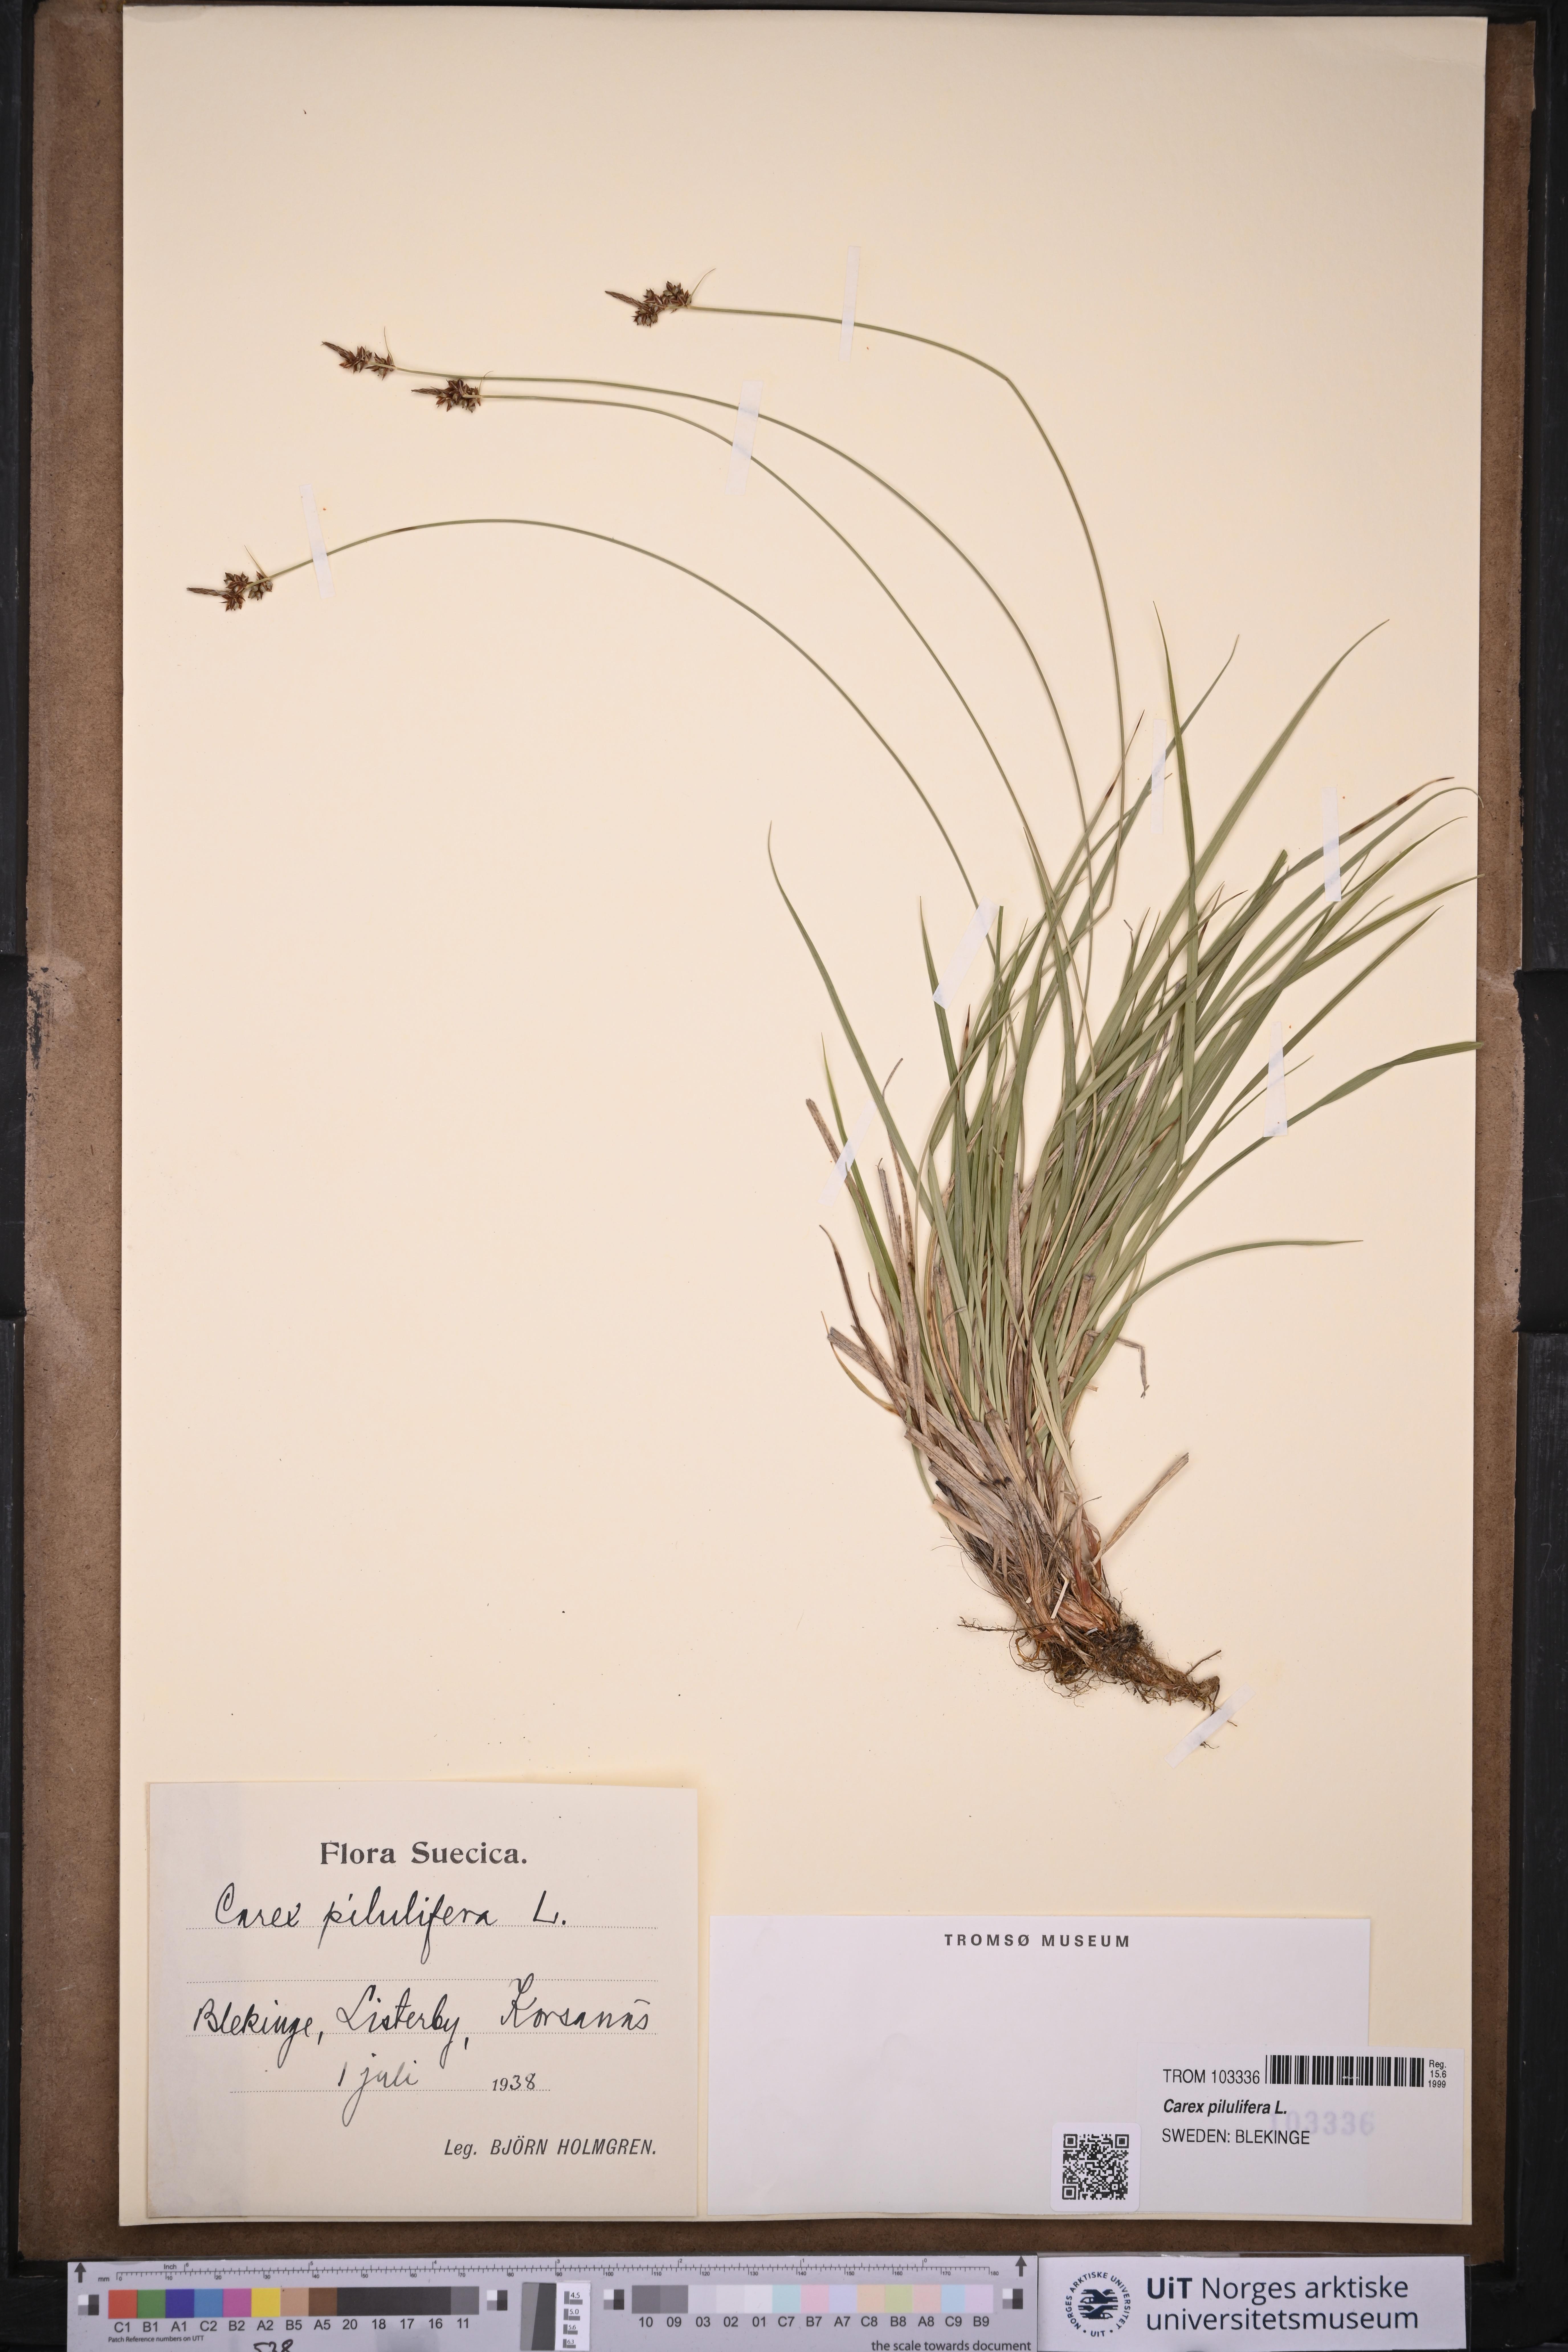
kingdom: Plantae
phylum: Tracheophyta
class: Liliopsida
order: Poales
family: Cyperaceae
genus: Carex
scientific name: Carex pilulifera
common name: Pill sedge
